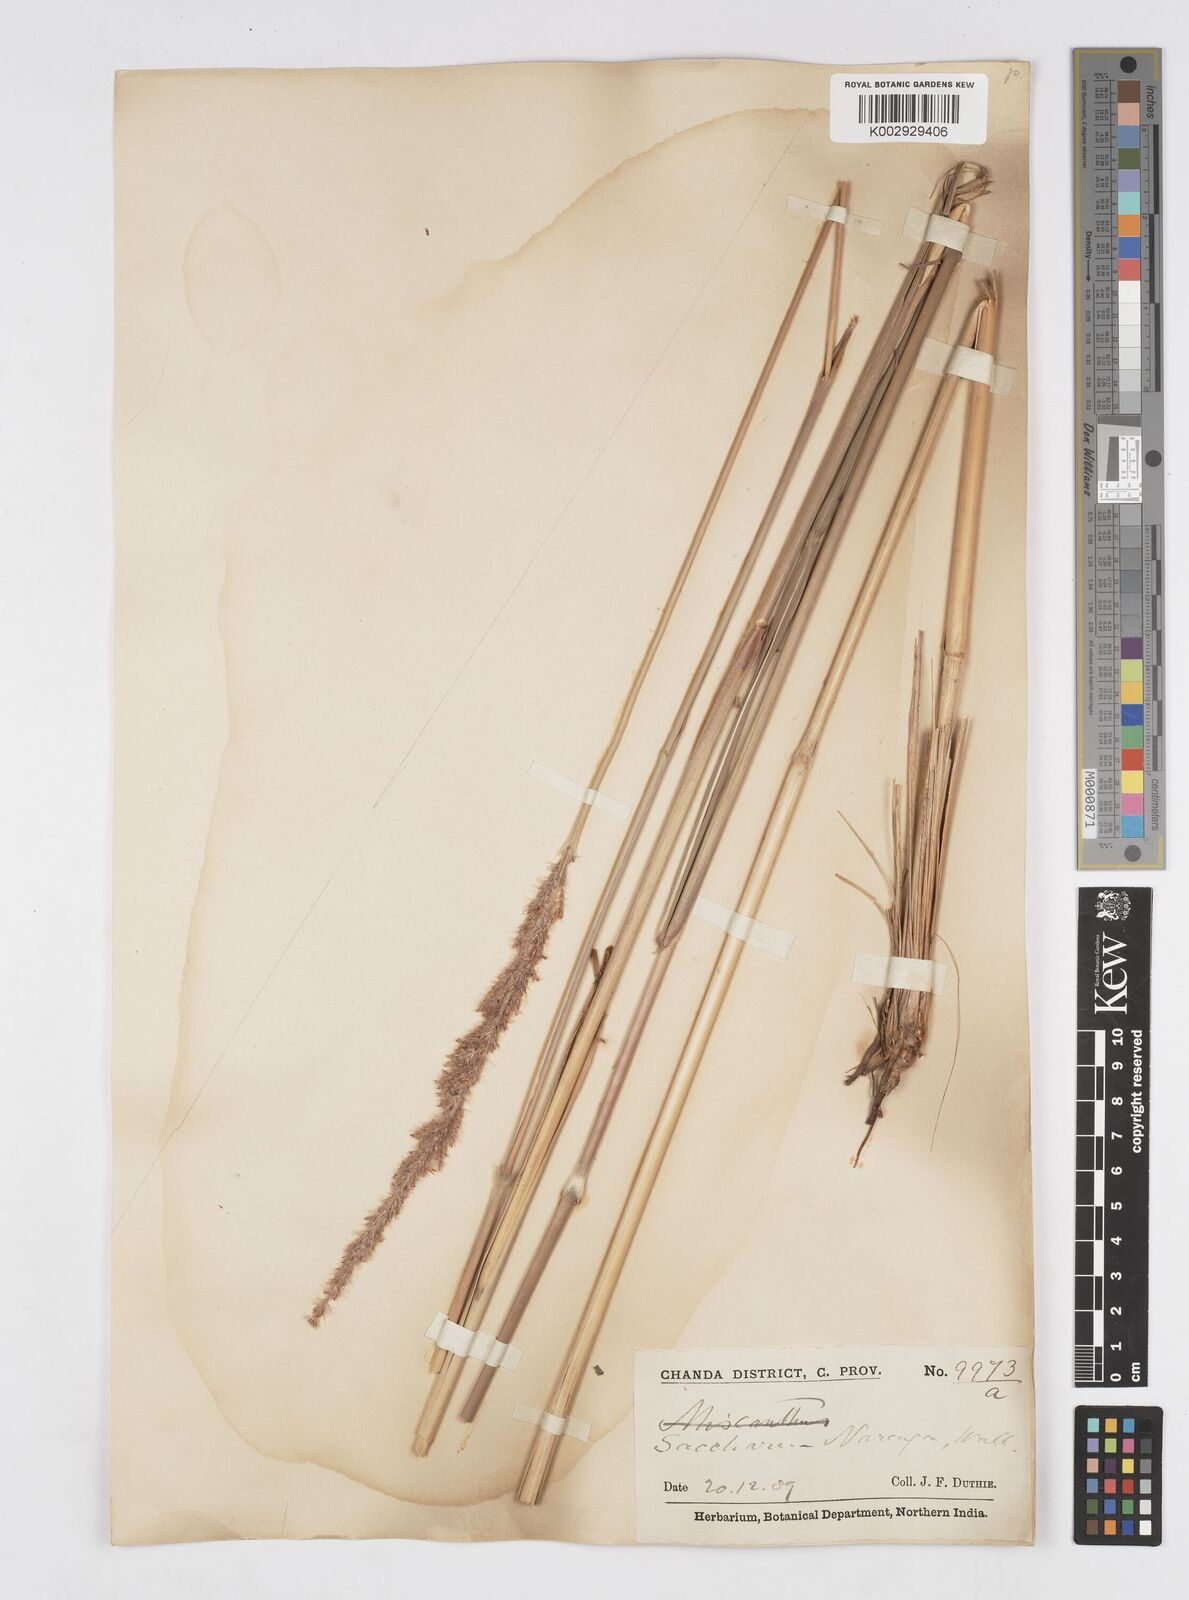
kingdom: Plantae
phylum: Tracheophyta
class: Liliopsida
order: Poales
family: Poaceae
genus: Narenga
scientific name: Narenga porphyrocoma
